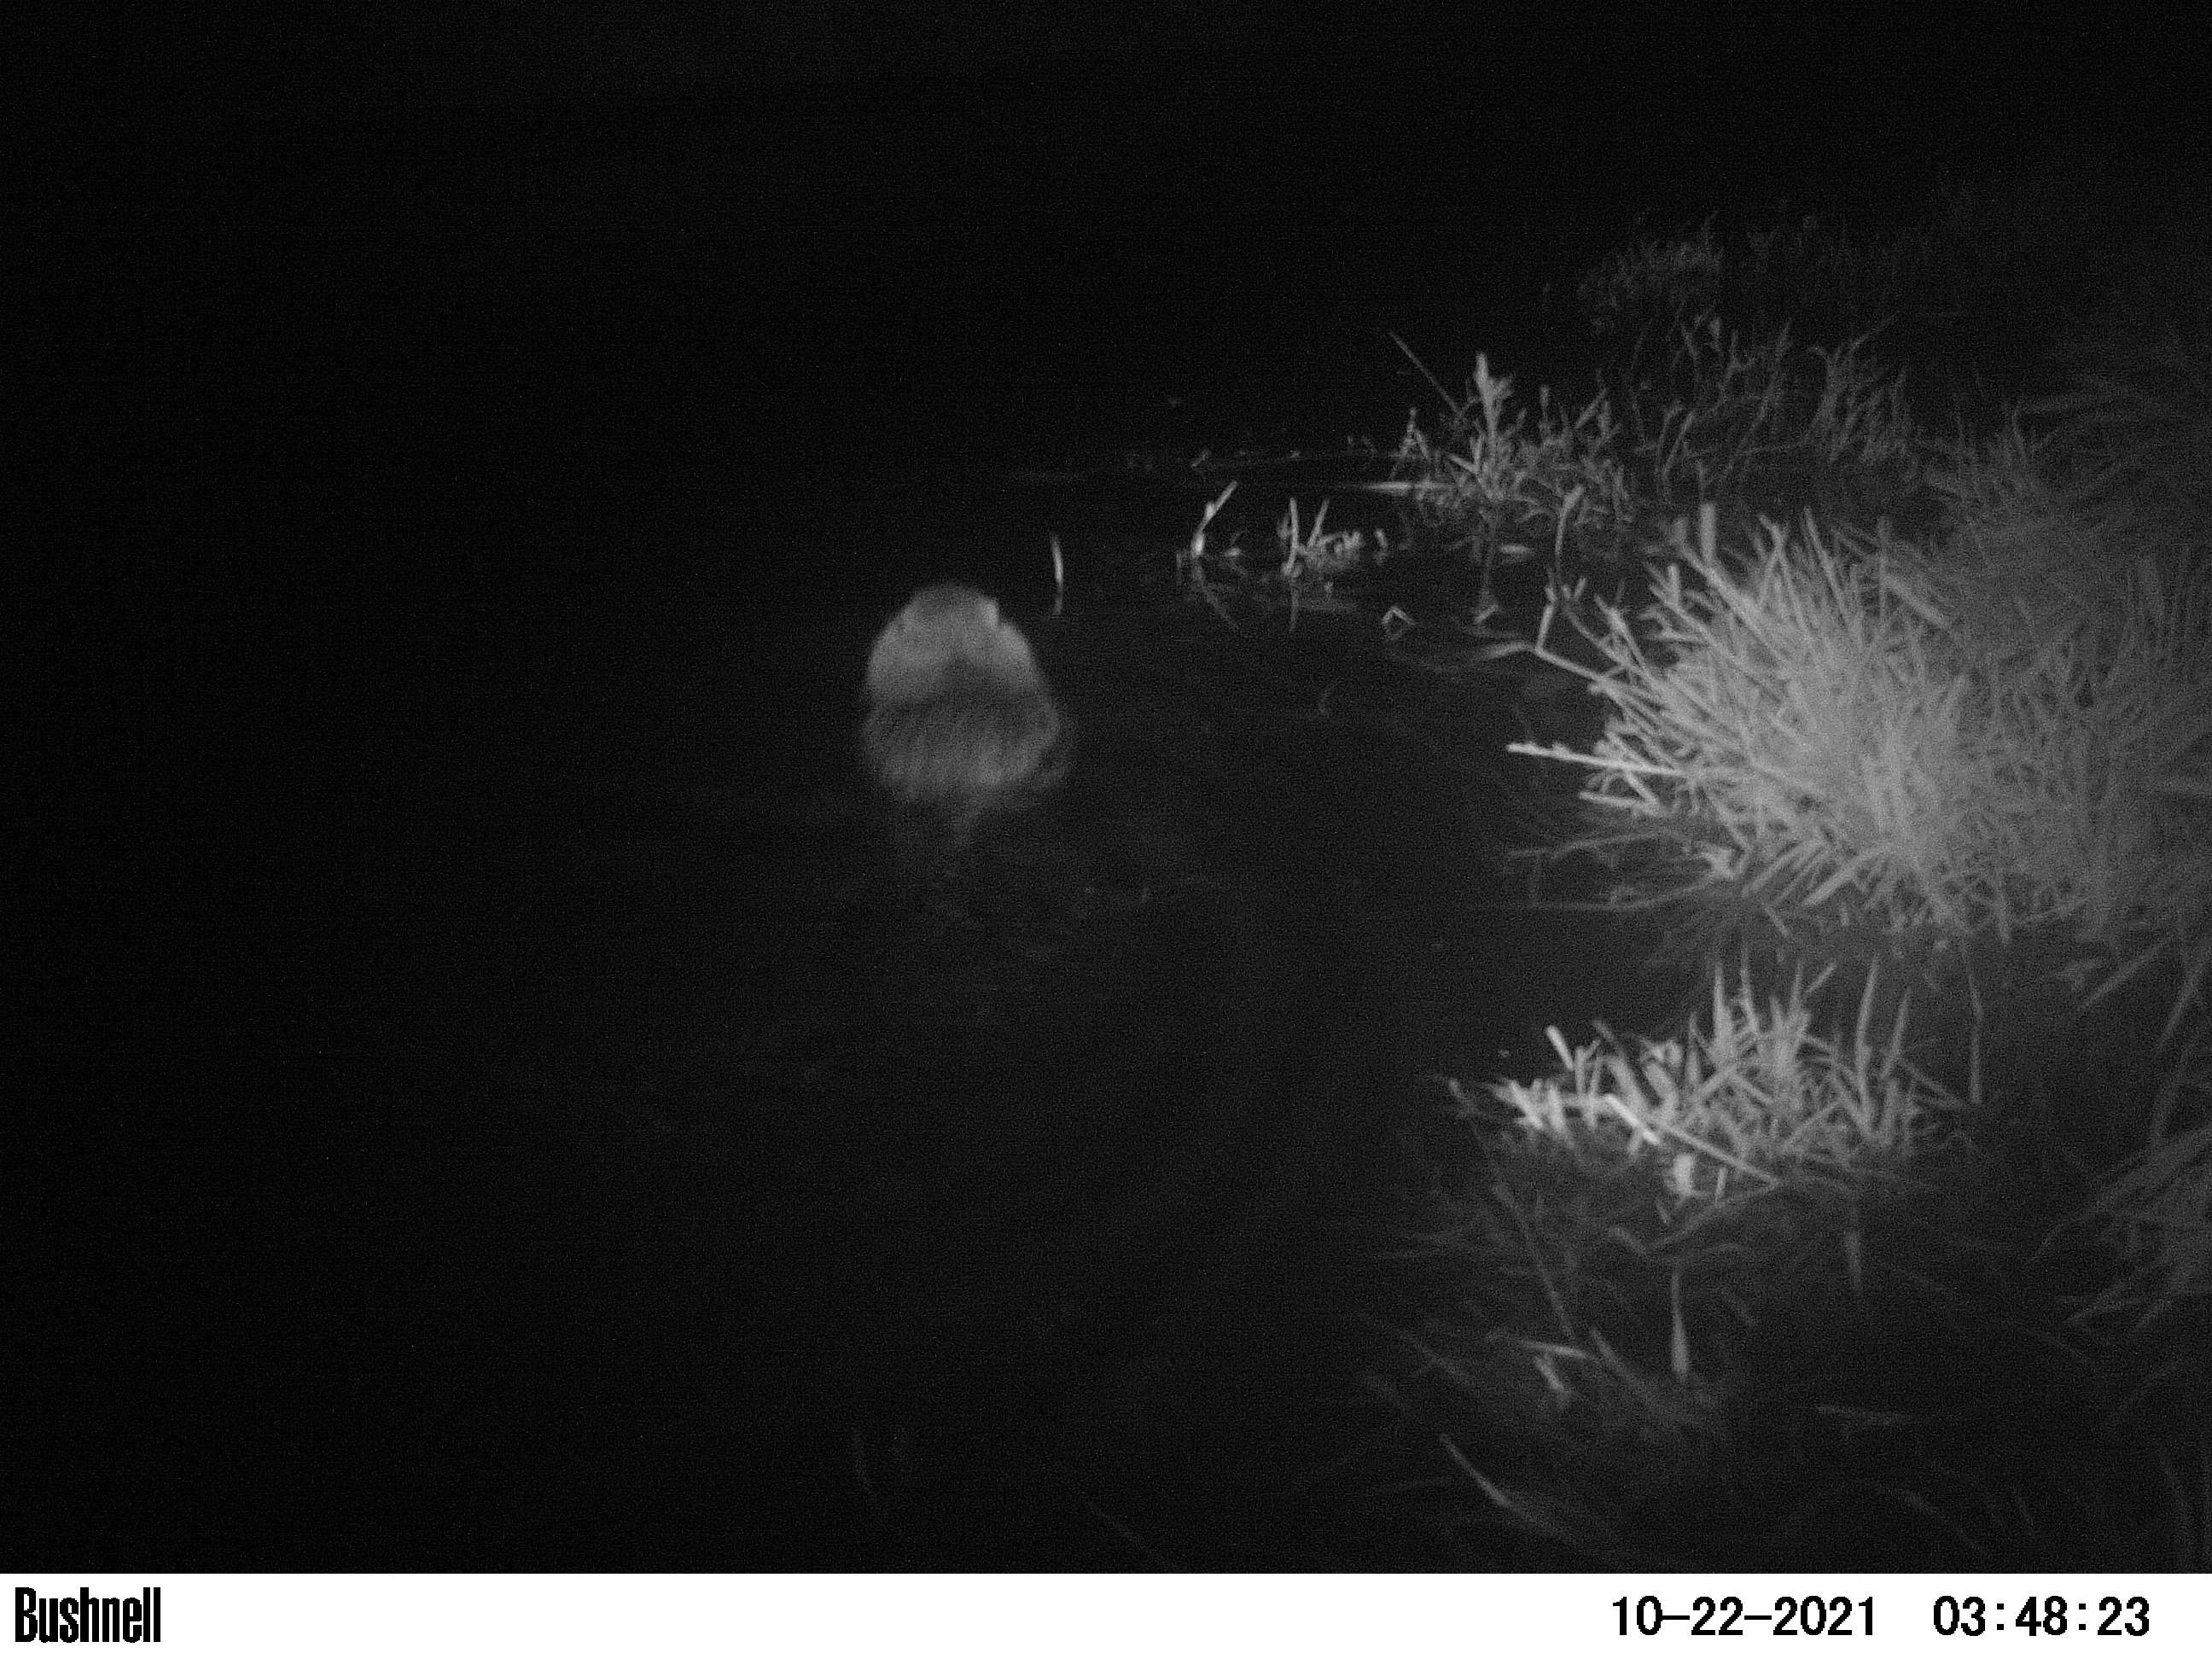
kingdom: Animalia
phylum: Chordata
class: Mammalia
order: Rodentia
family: Cricetidae
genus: Ondatra
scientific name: Ondatra zibethicus
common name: Muskrat
